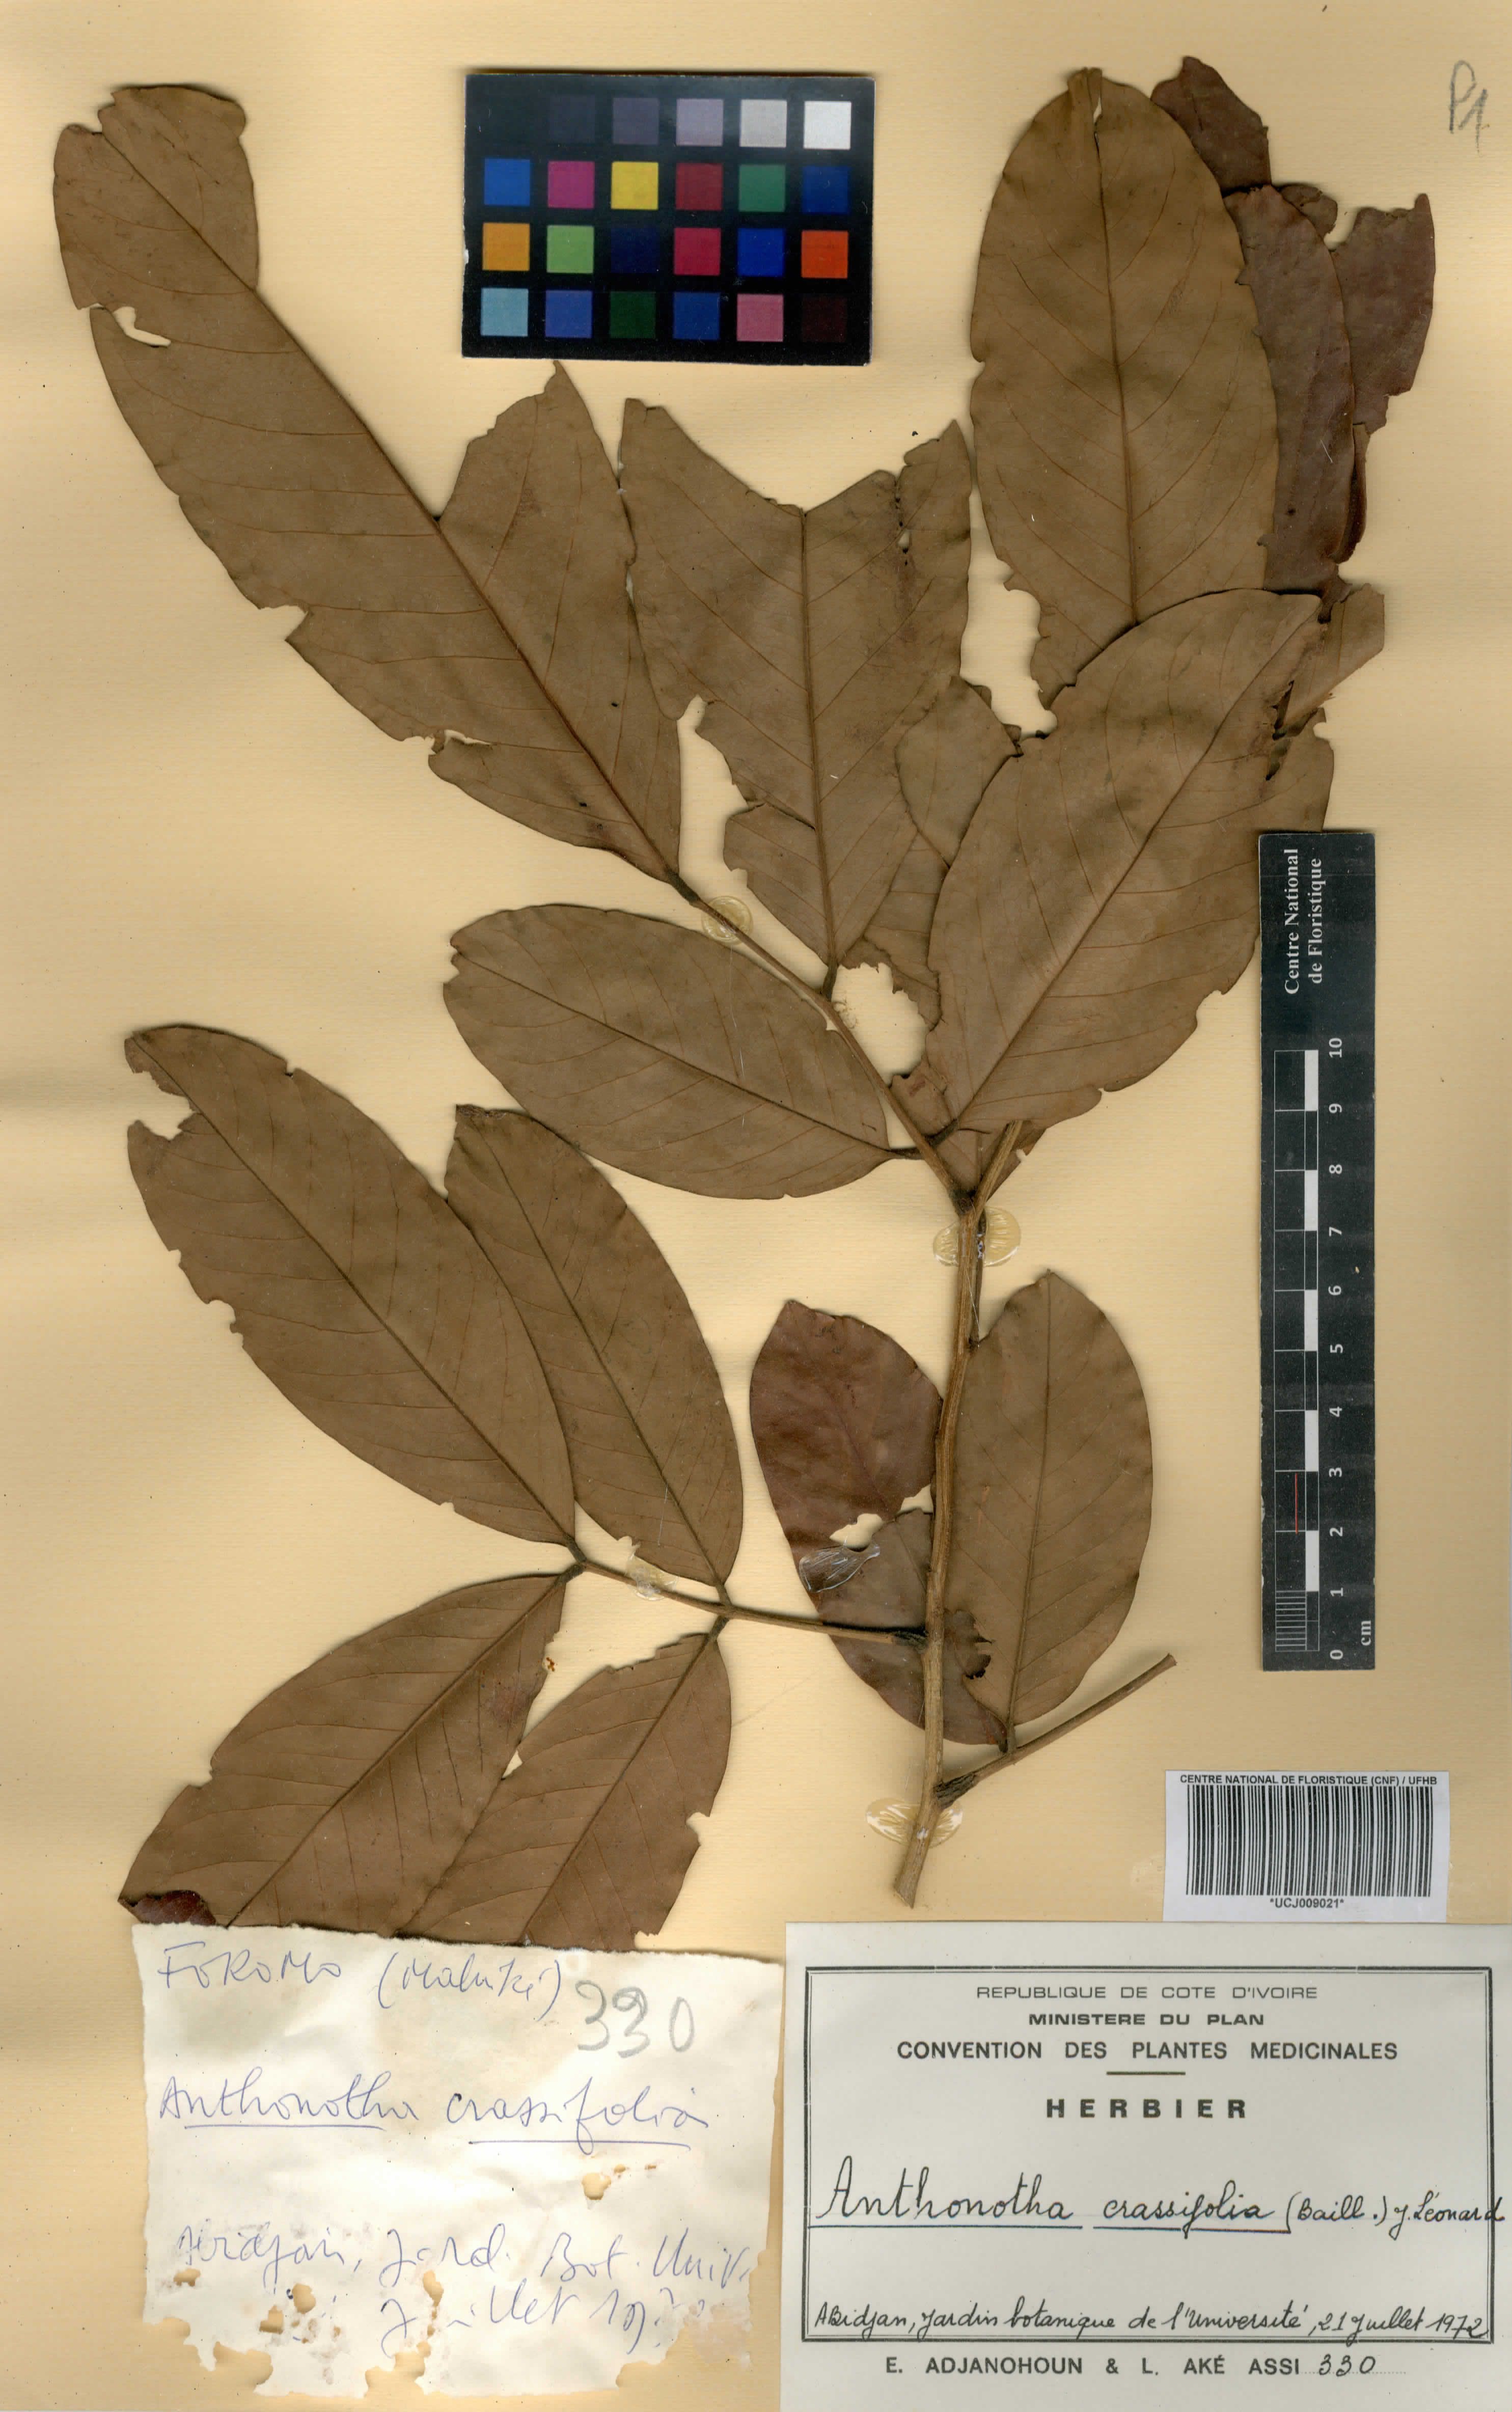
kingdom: Plantae
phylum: Tracheophyta
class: Magnoliopsida
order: Fabales
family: Fabaceae
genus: Anthonotha
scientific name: Anthonotha crassifolia
